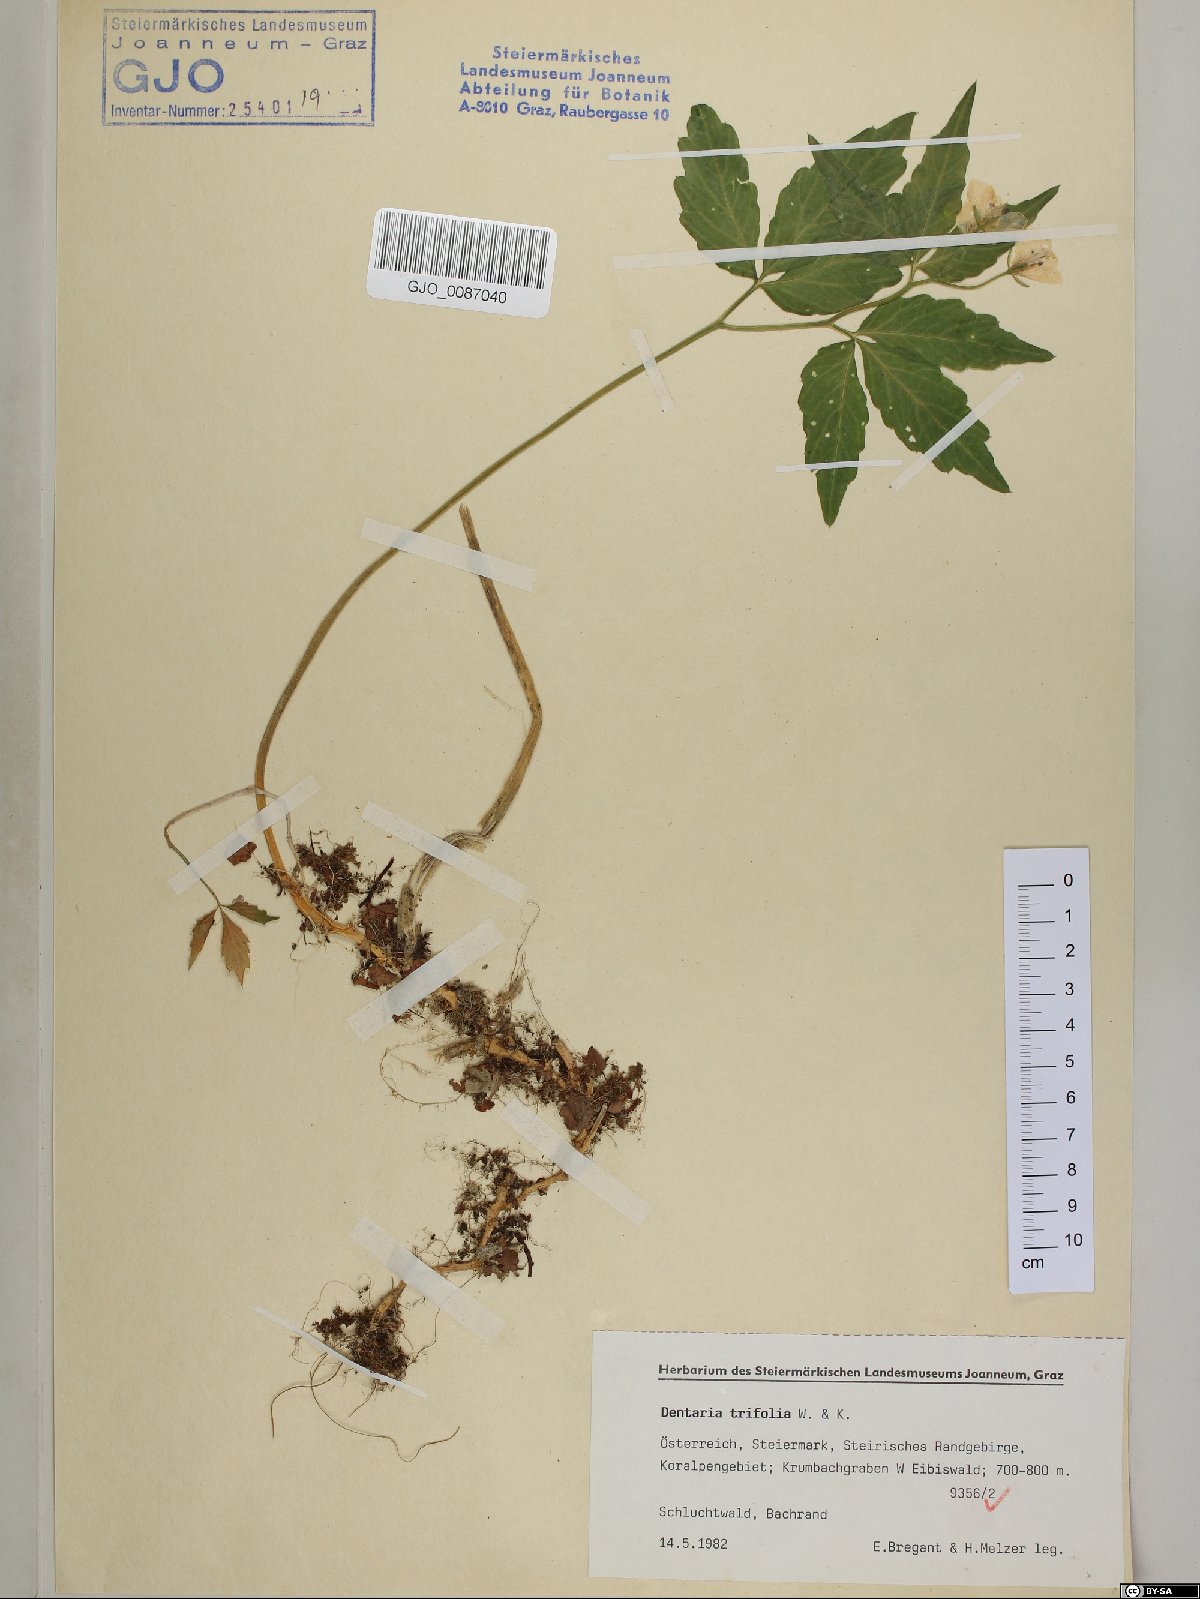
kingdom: Plantae
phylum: Tracheophyta
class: Magnoliopsida
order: Brassicales
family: Brassicaceae
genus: Cardamine
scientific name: Cardamine waldsteinii
